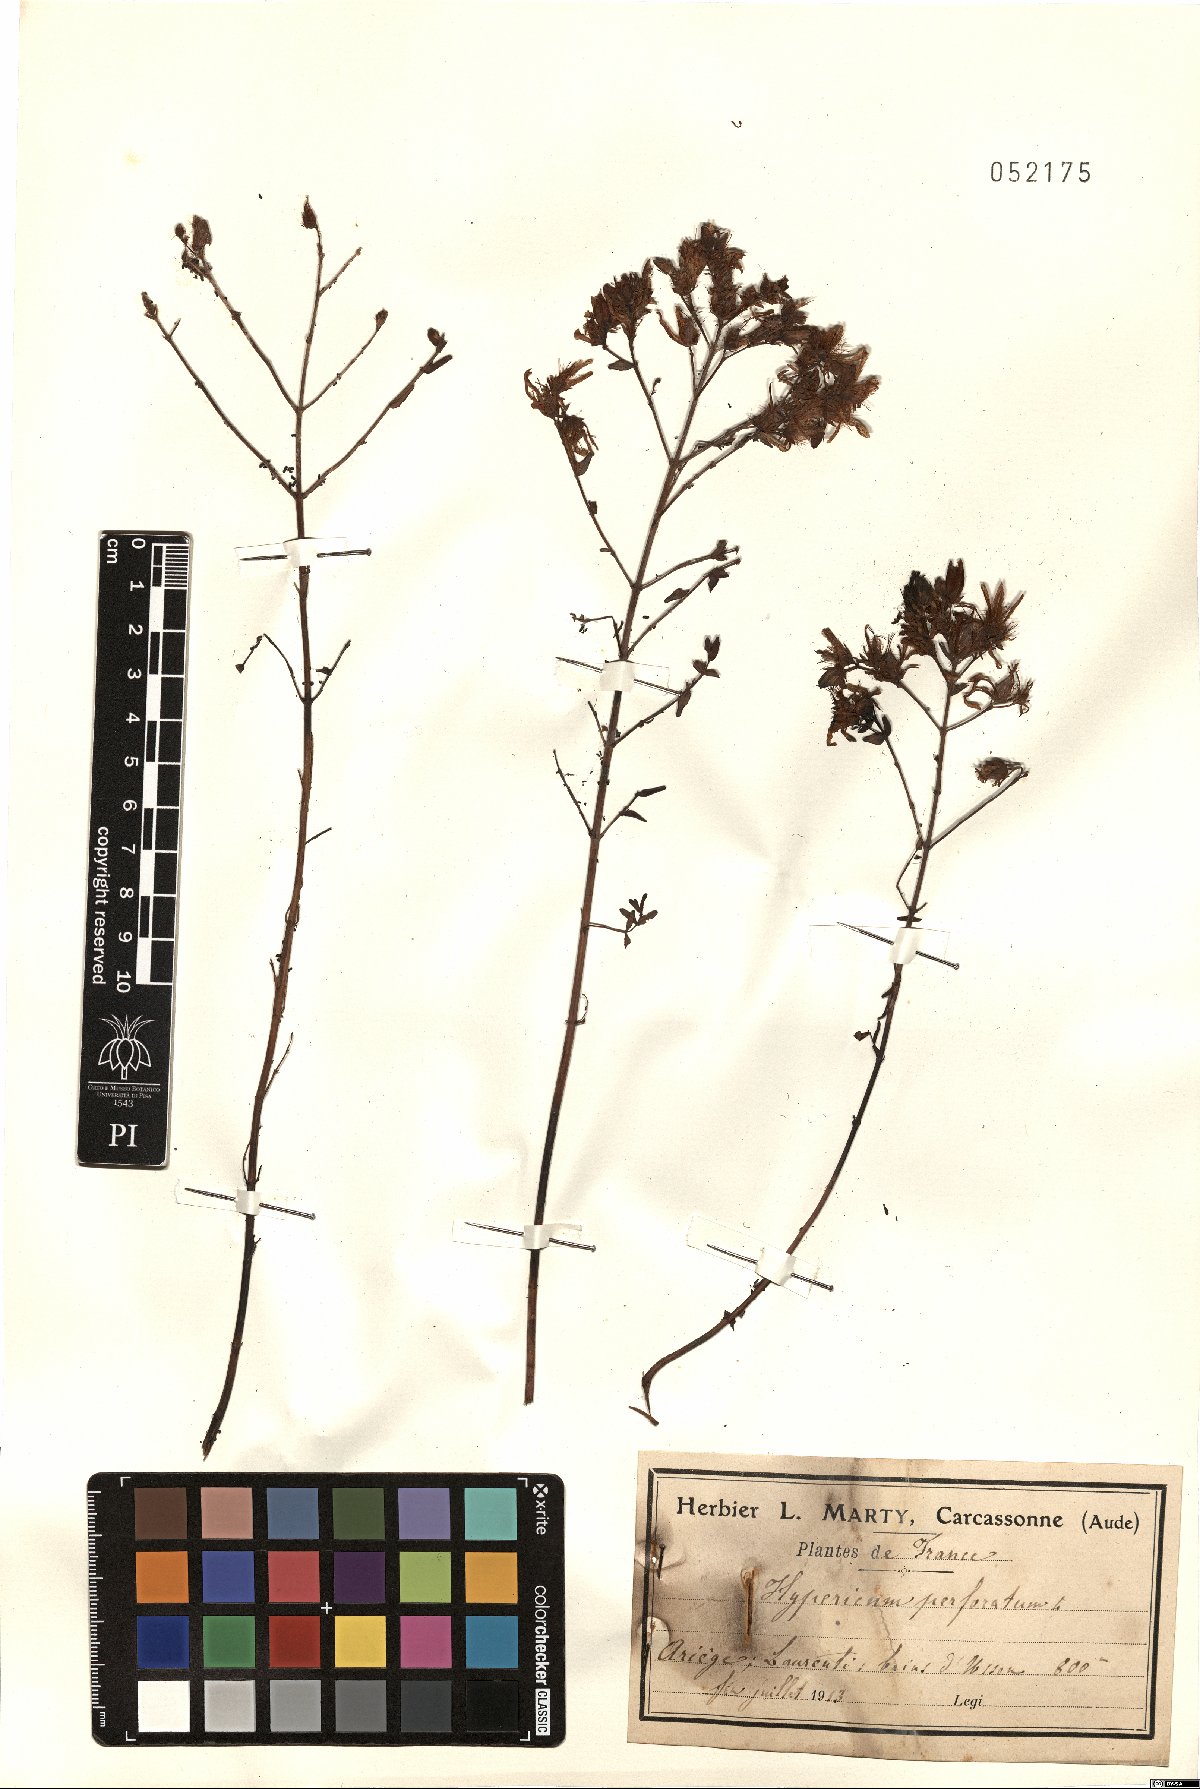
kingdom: Plantae
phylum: Tracheophyta
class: Magnoliopsida
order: Malpighiales
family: Hypericaceae
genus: Hypericum
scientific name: Hypericum perforatum
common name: Common st. johnswort
